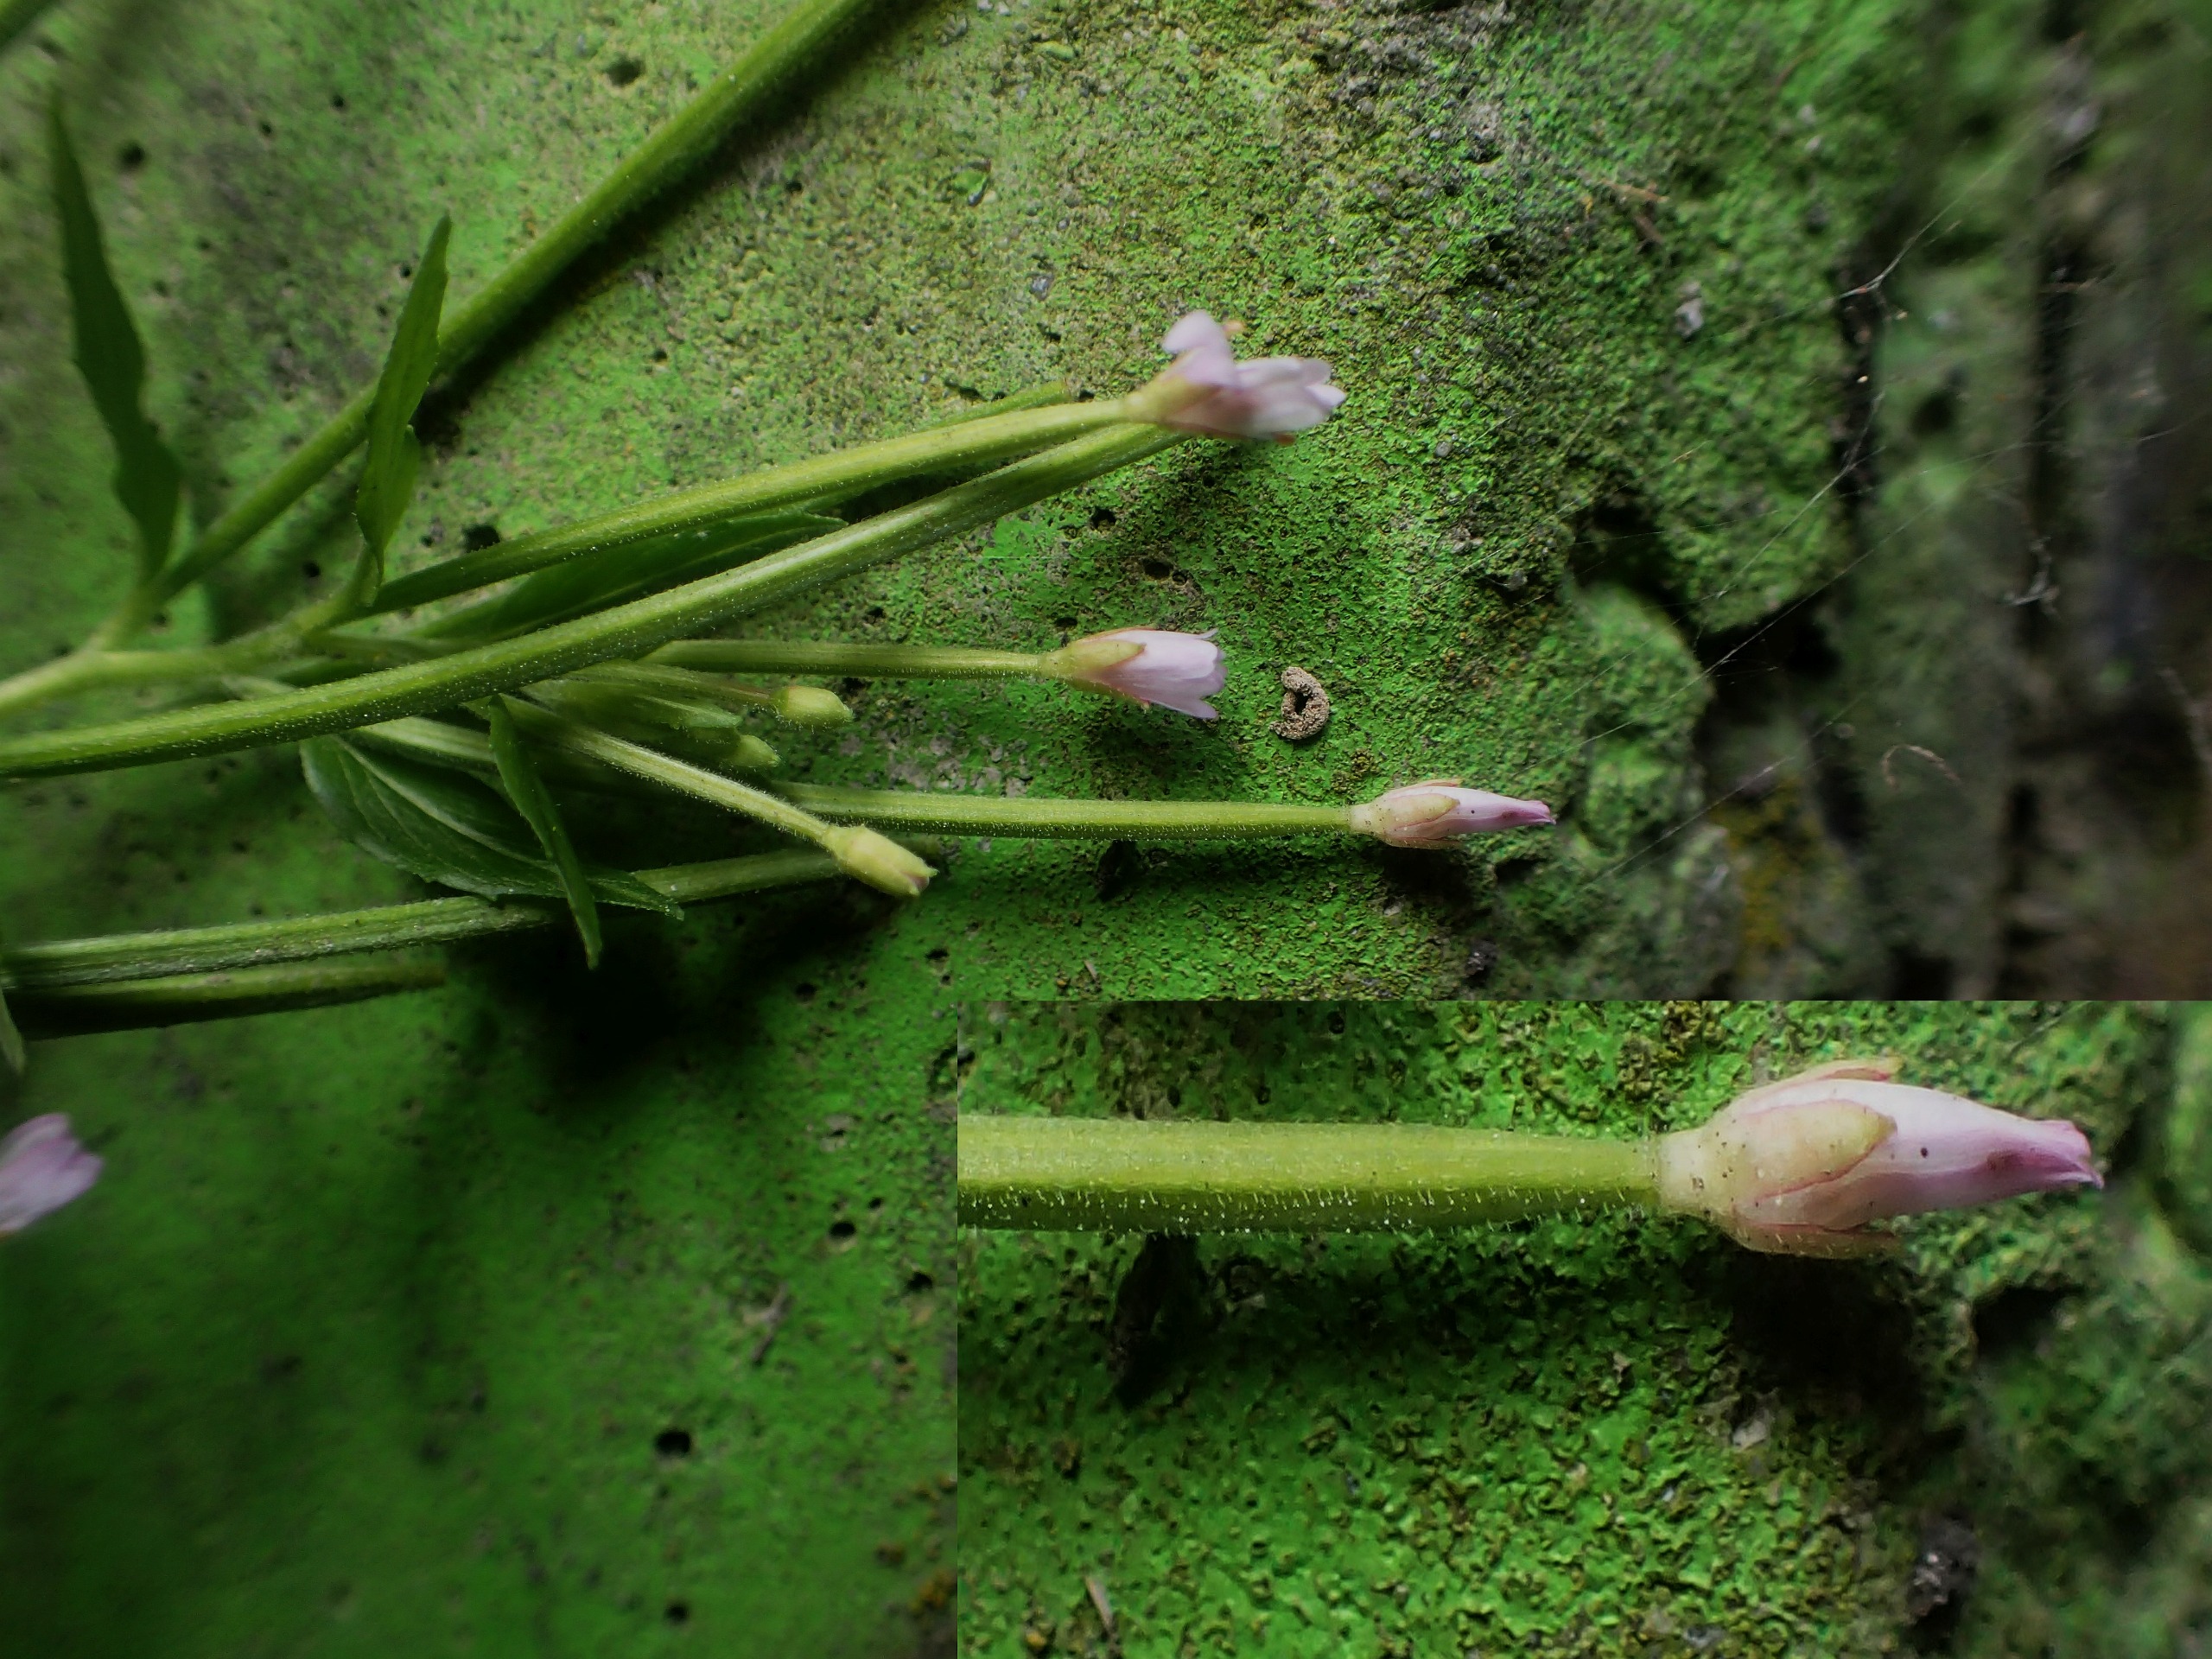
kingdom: Plantae
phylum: Tracheophyta
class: Magnoliopsida
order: Myrtales
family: Onagraceae
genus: Epilobium
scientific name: Epilobium ciliatum
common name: Kirtlet dueurt
